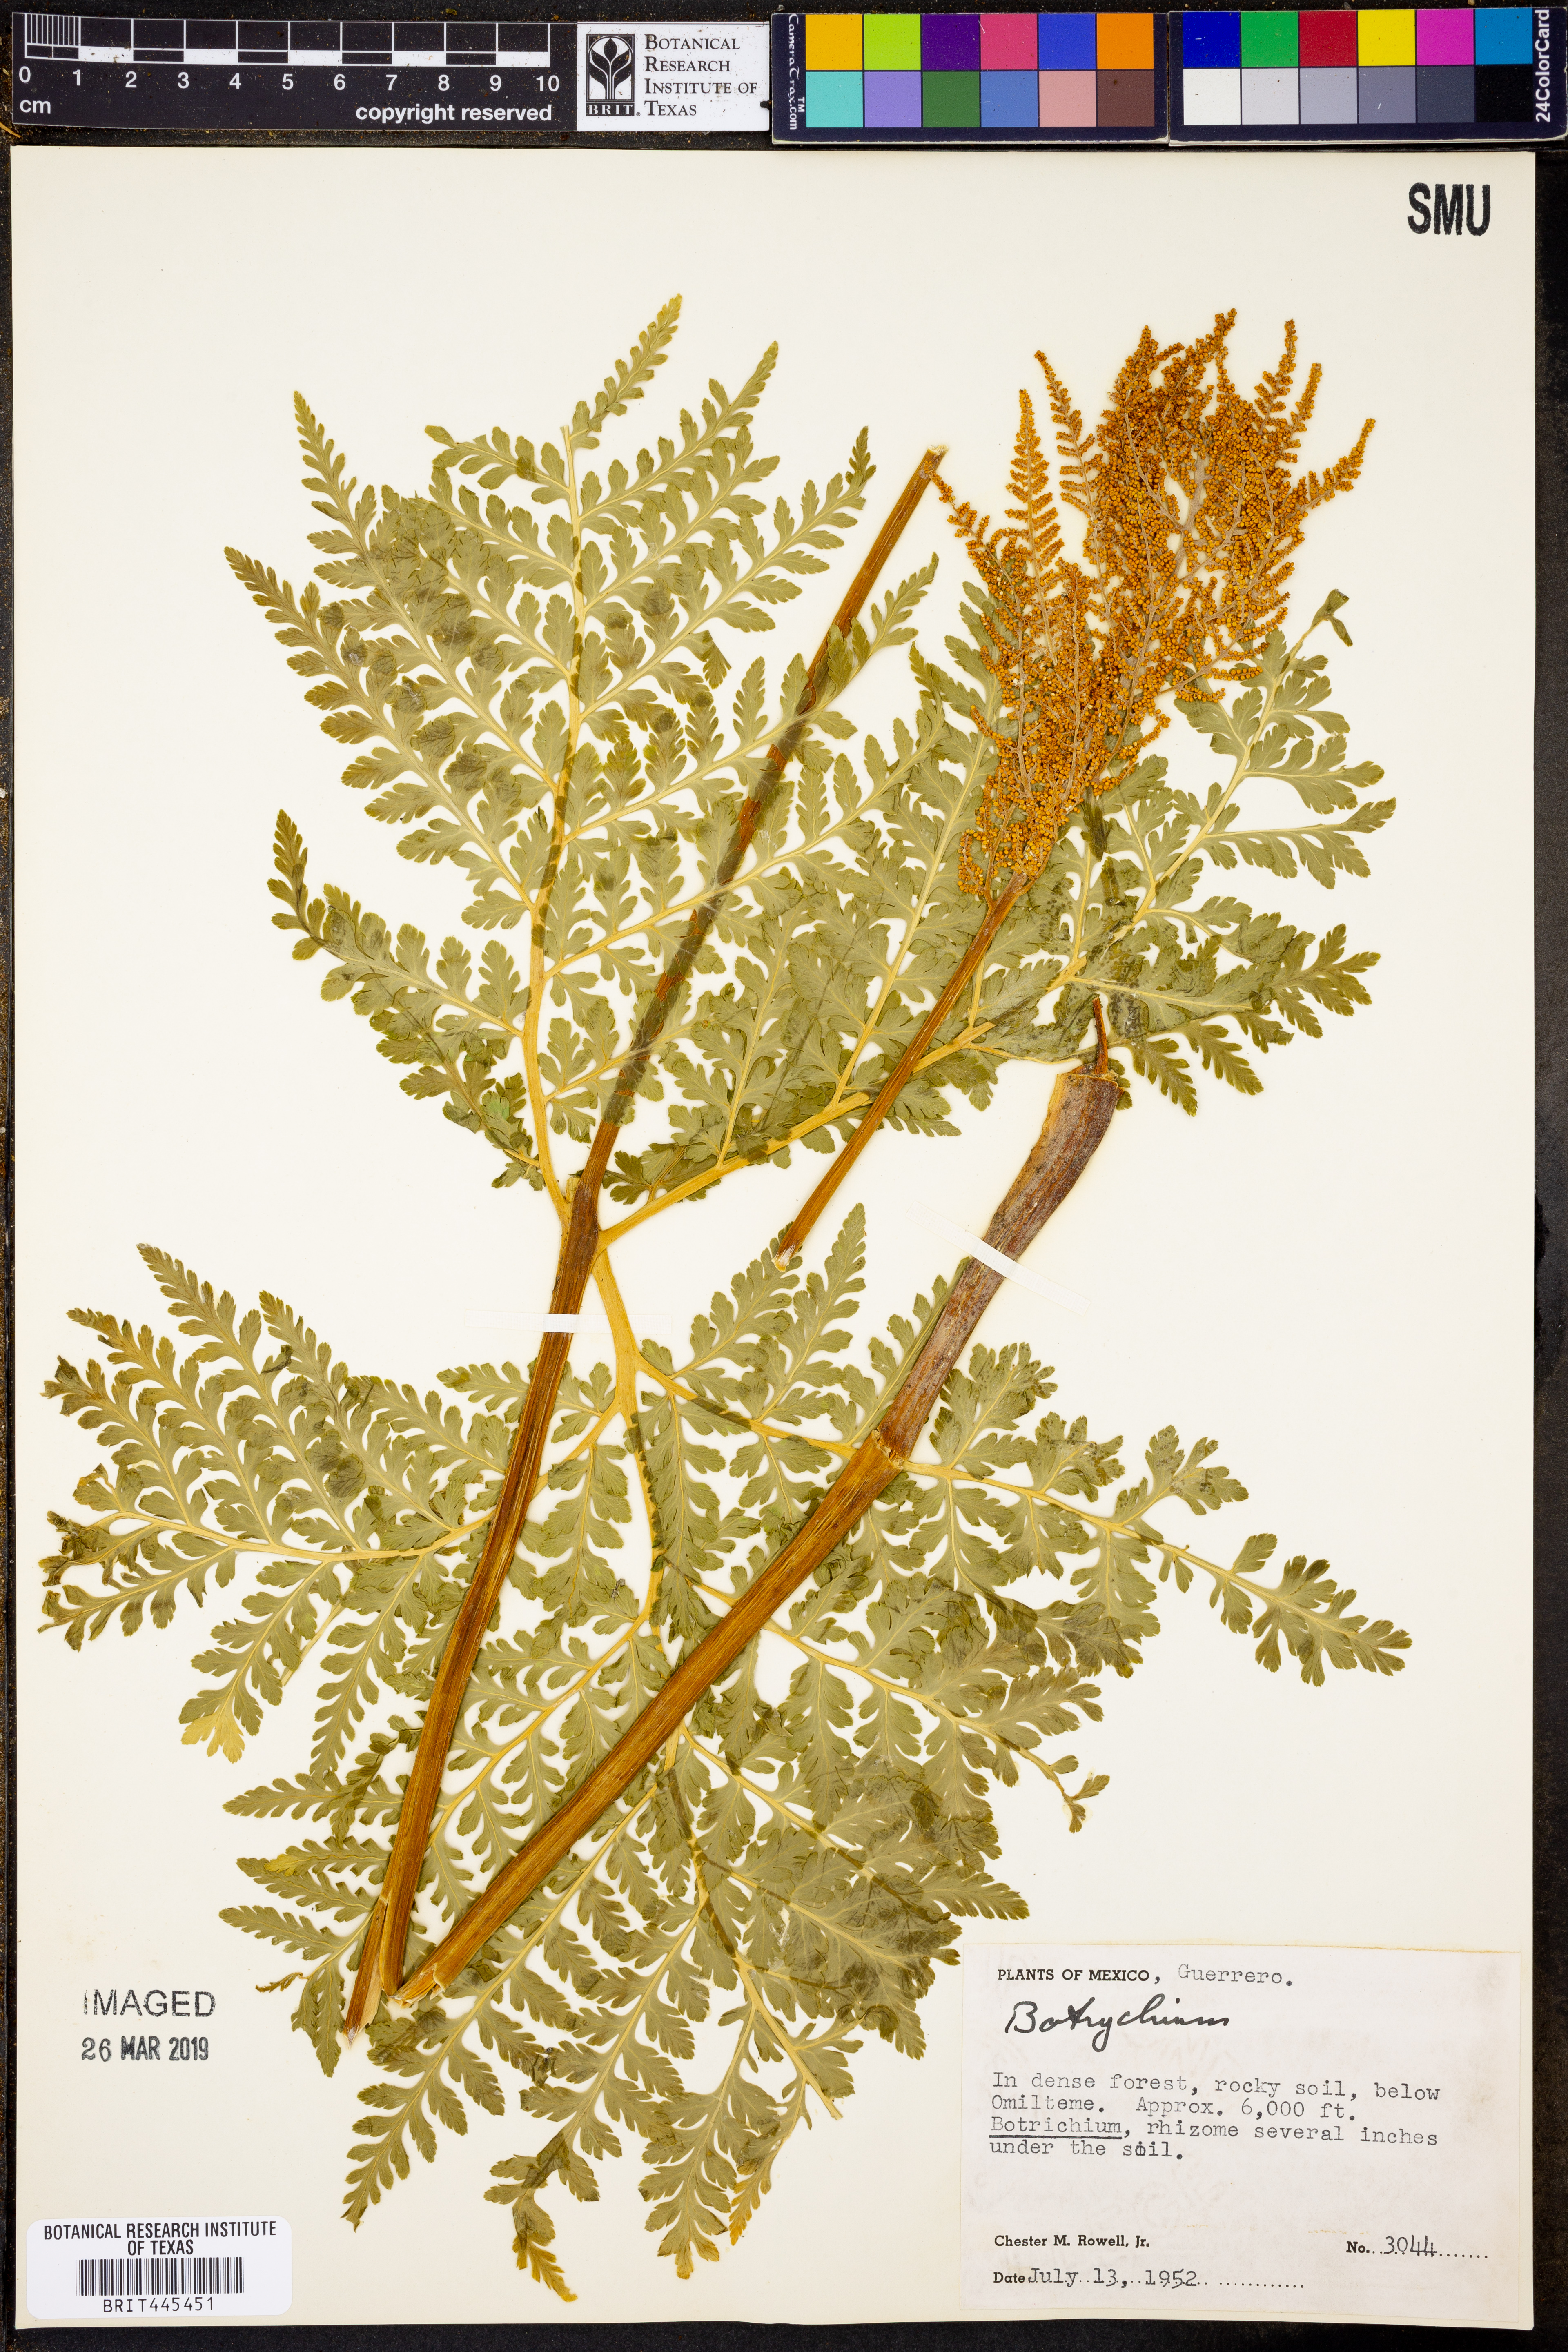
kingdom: Plantae
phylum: Tracheophyta
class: Polypodiopsida
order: Ophioglossales
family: Ophioglossaceae
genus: Botrychium
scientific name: Botrychium
